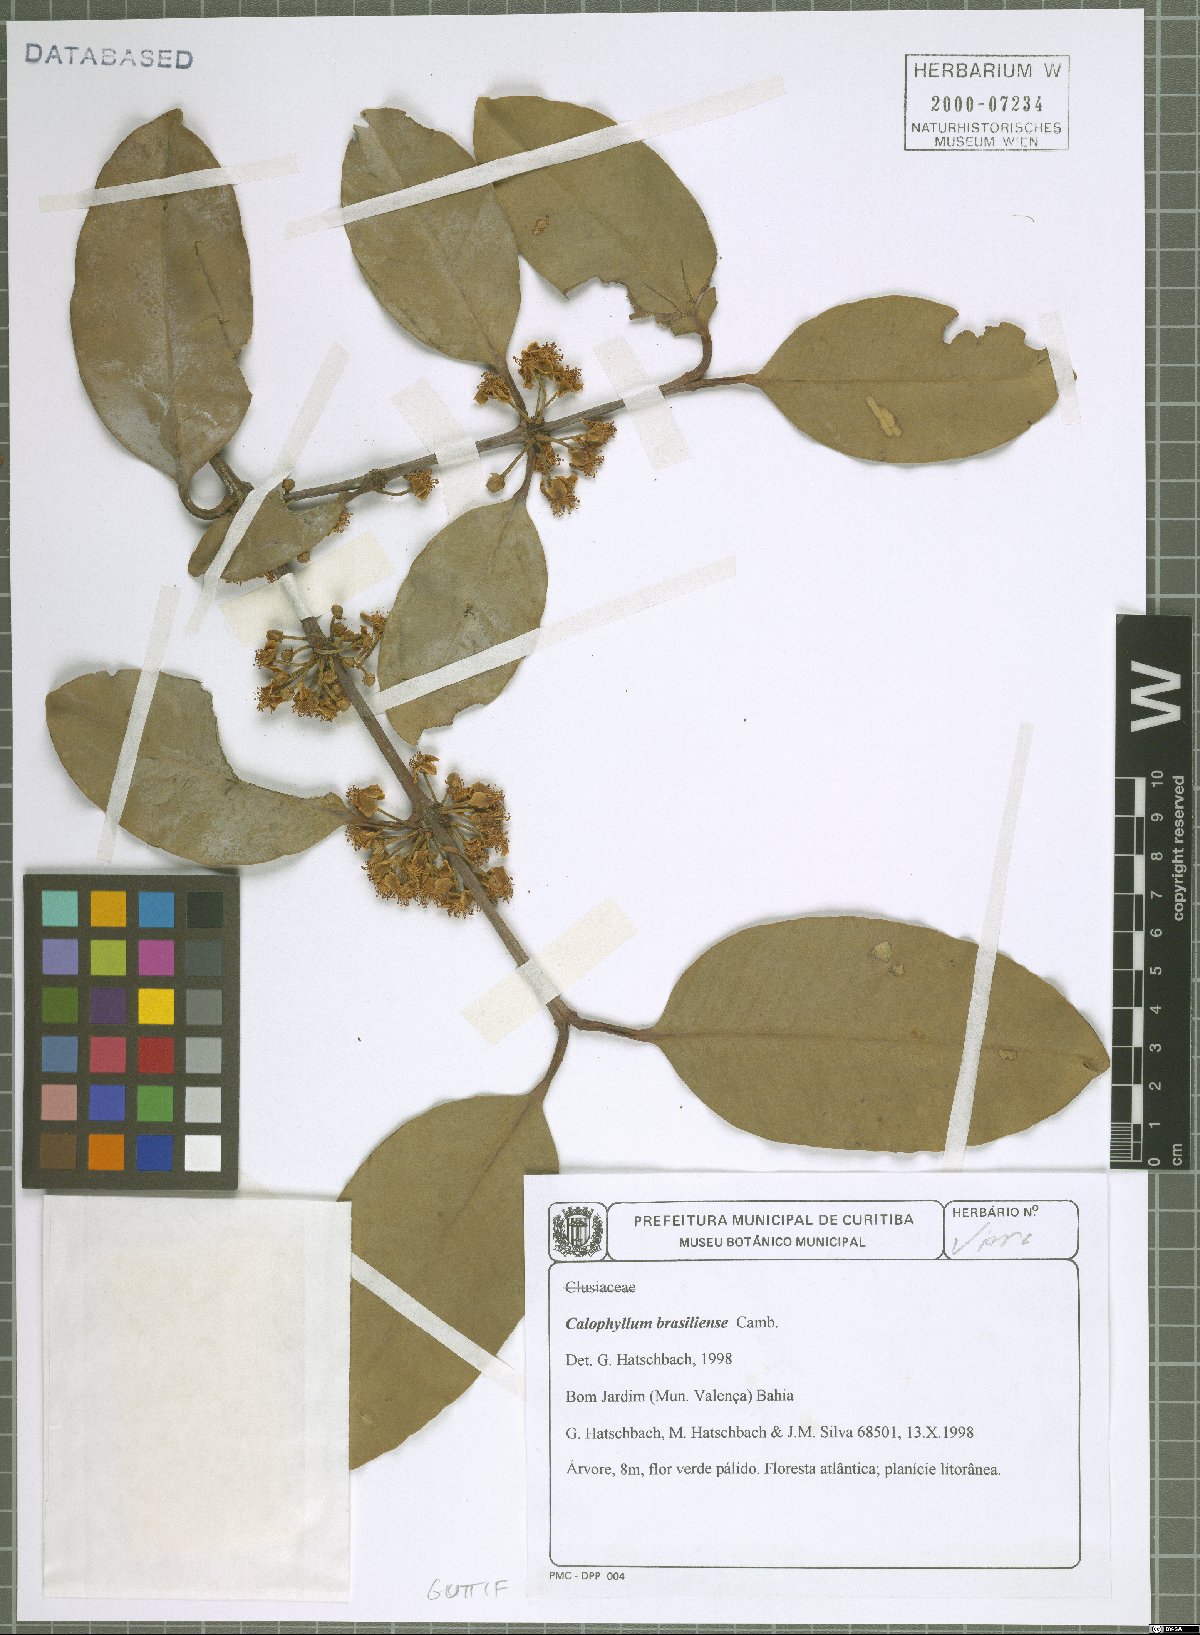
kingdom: Plantae
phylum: Tracheophyta
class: Magnoliopsida
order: Malpighiales
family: Calophyllaceae
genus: Calophyllum
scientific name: Calophyllum brasiliense
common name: Santa maria
